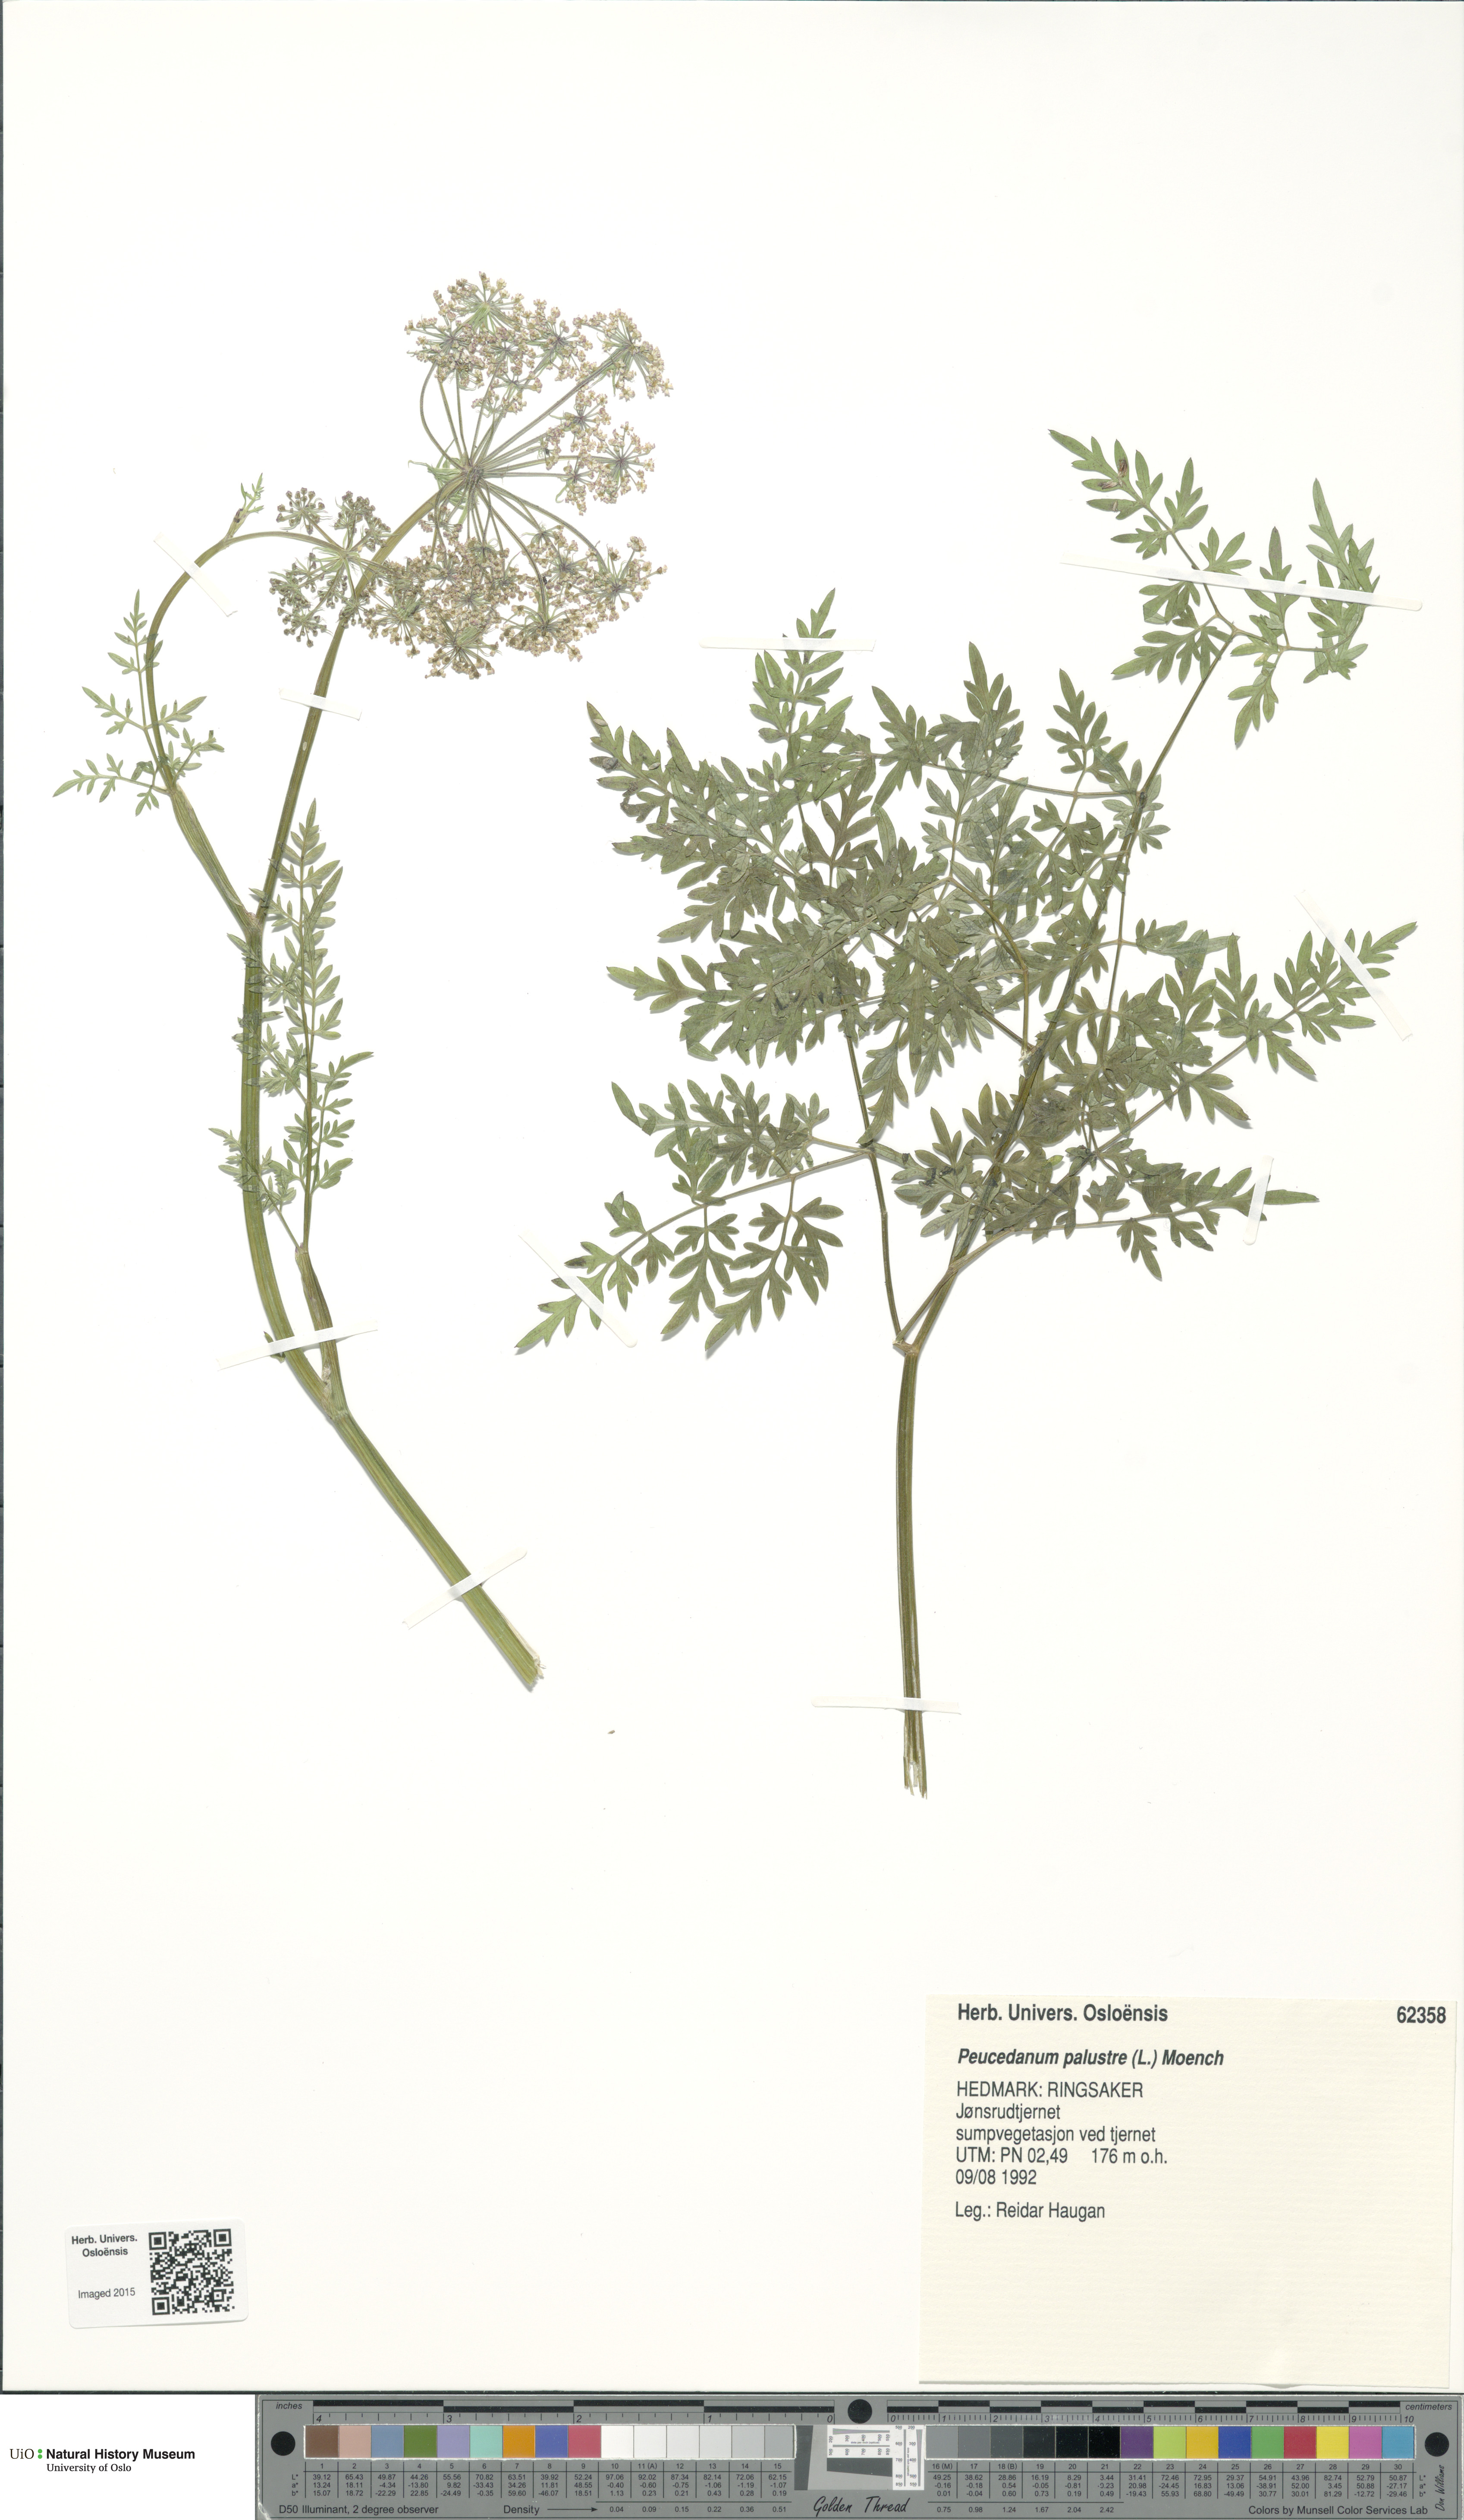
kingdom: Plantae
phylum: Tracheophyta
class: Magnoliopsida
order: Apiales
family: Apiaceae
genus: Thysselinum
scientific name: Thysselinum palustre
